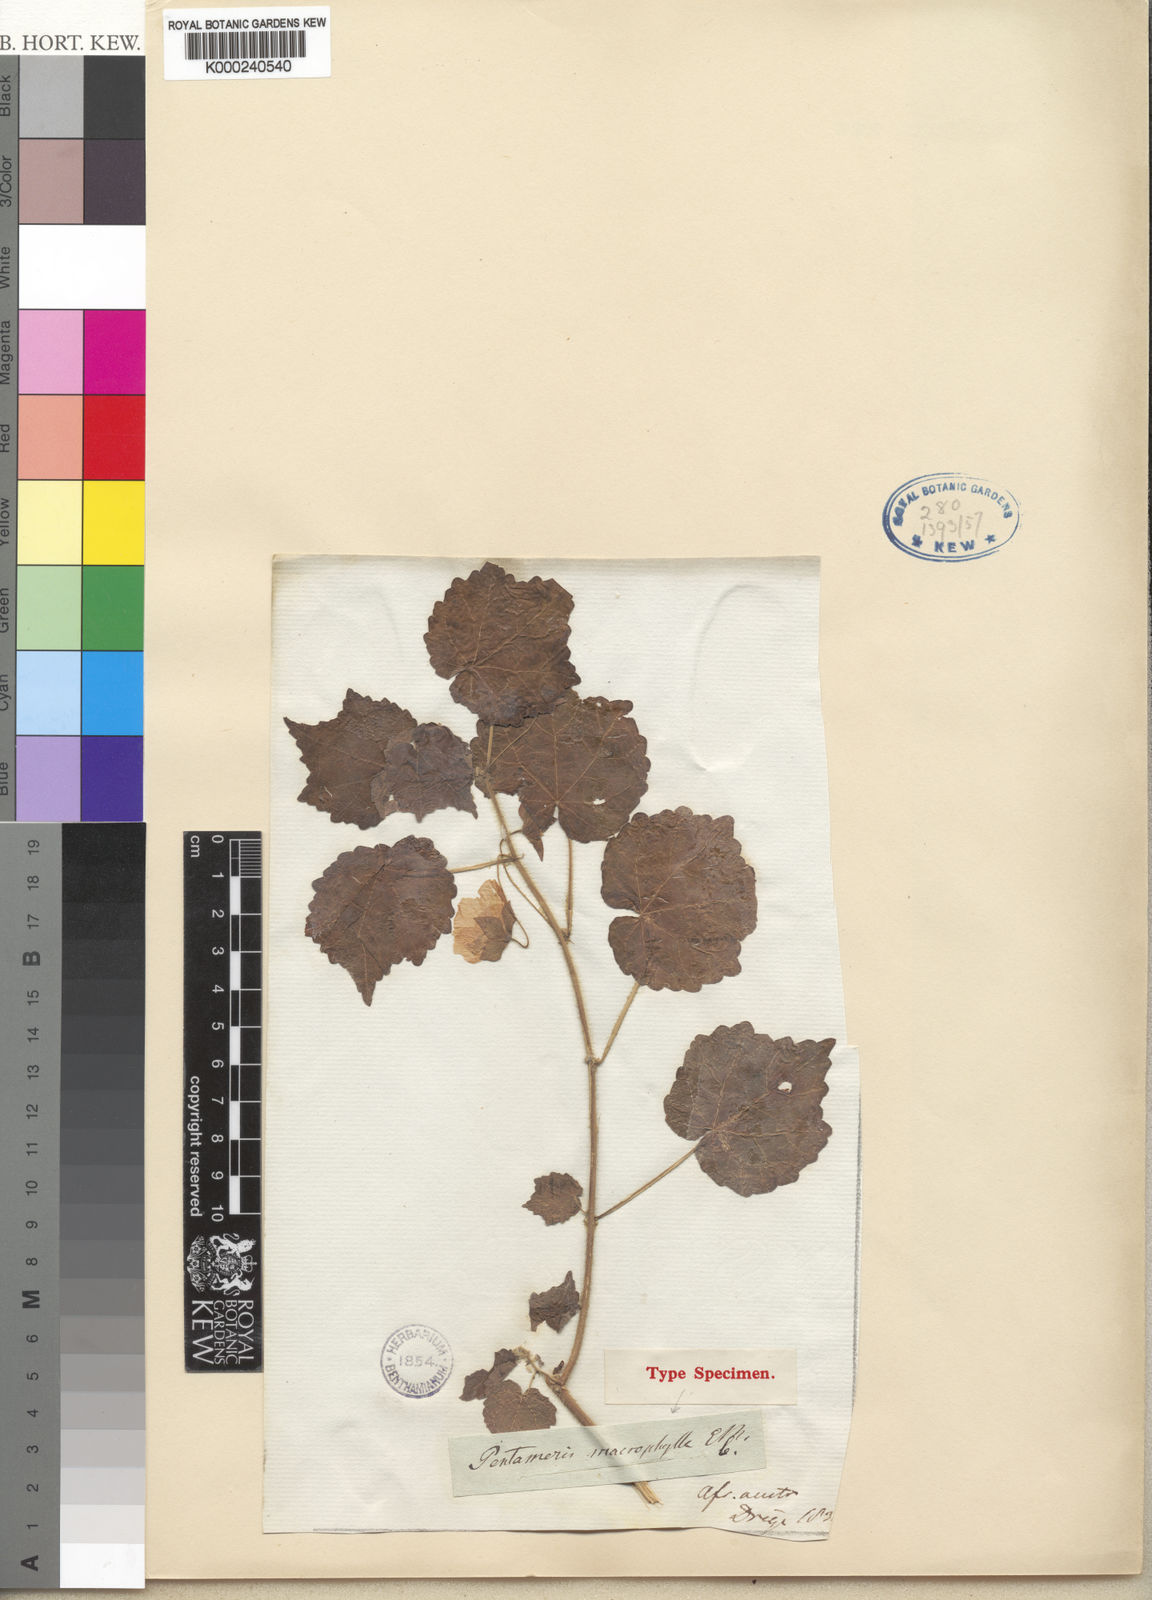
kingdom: Plantae
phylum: Tracheophyta
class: Magnoliopsida
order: Malvales
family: Malvaceae
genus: Pavonia
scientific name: Pavonia burchellii
